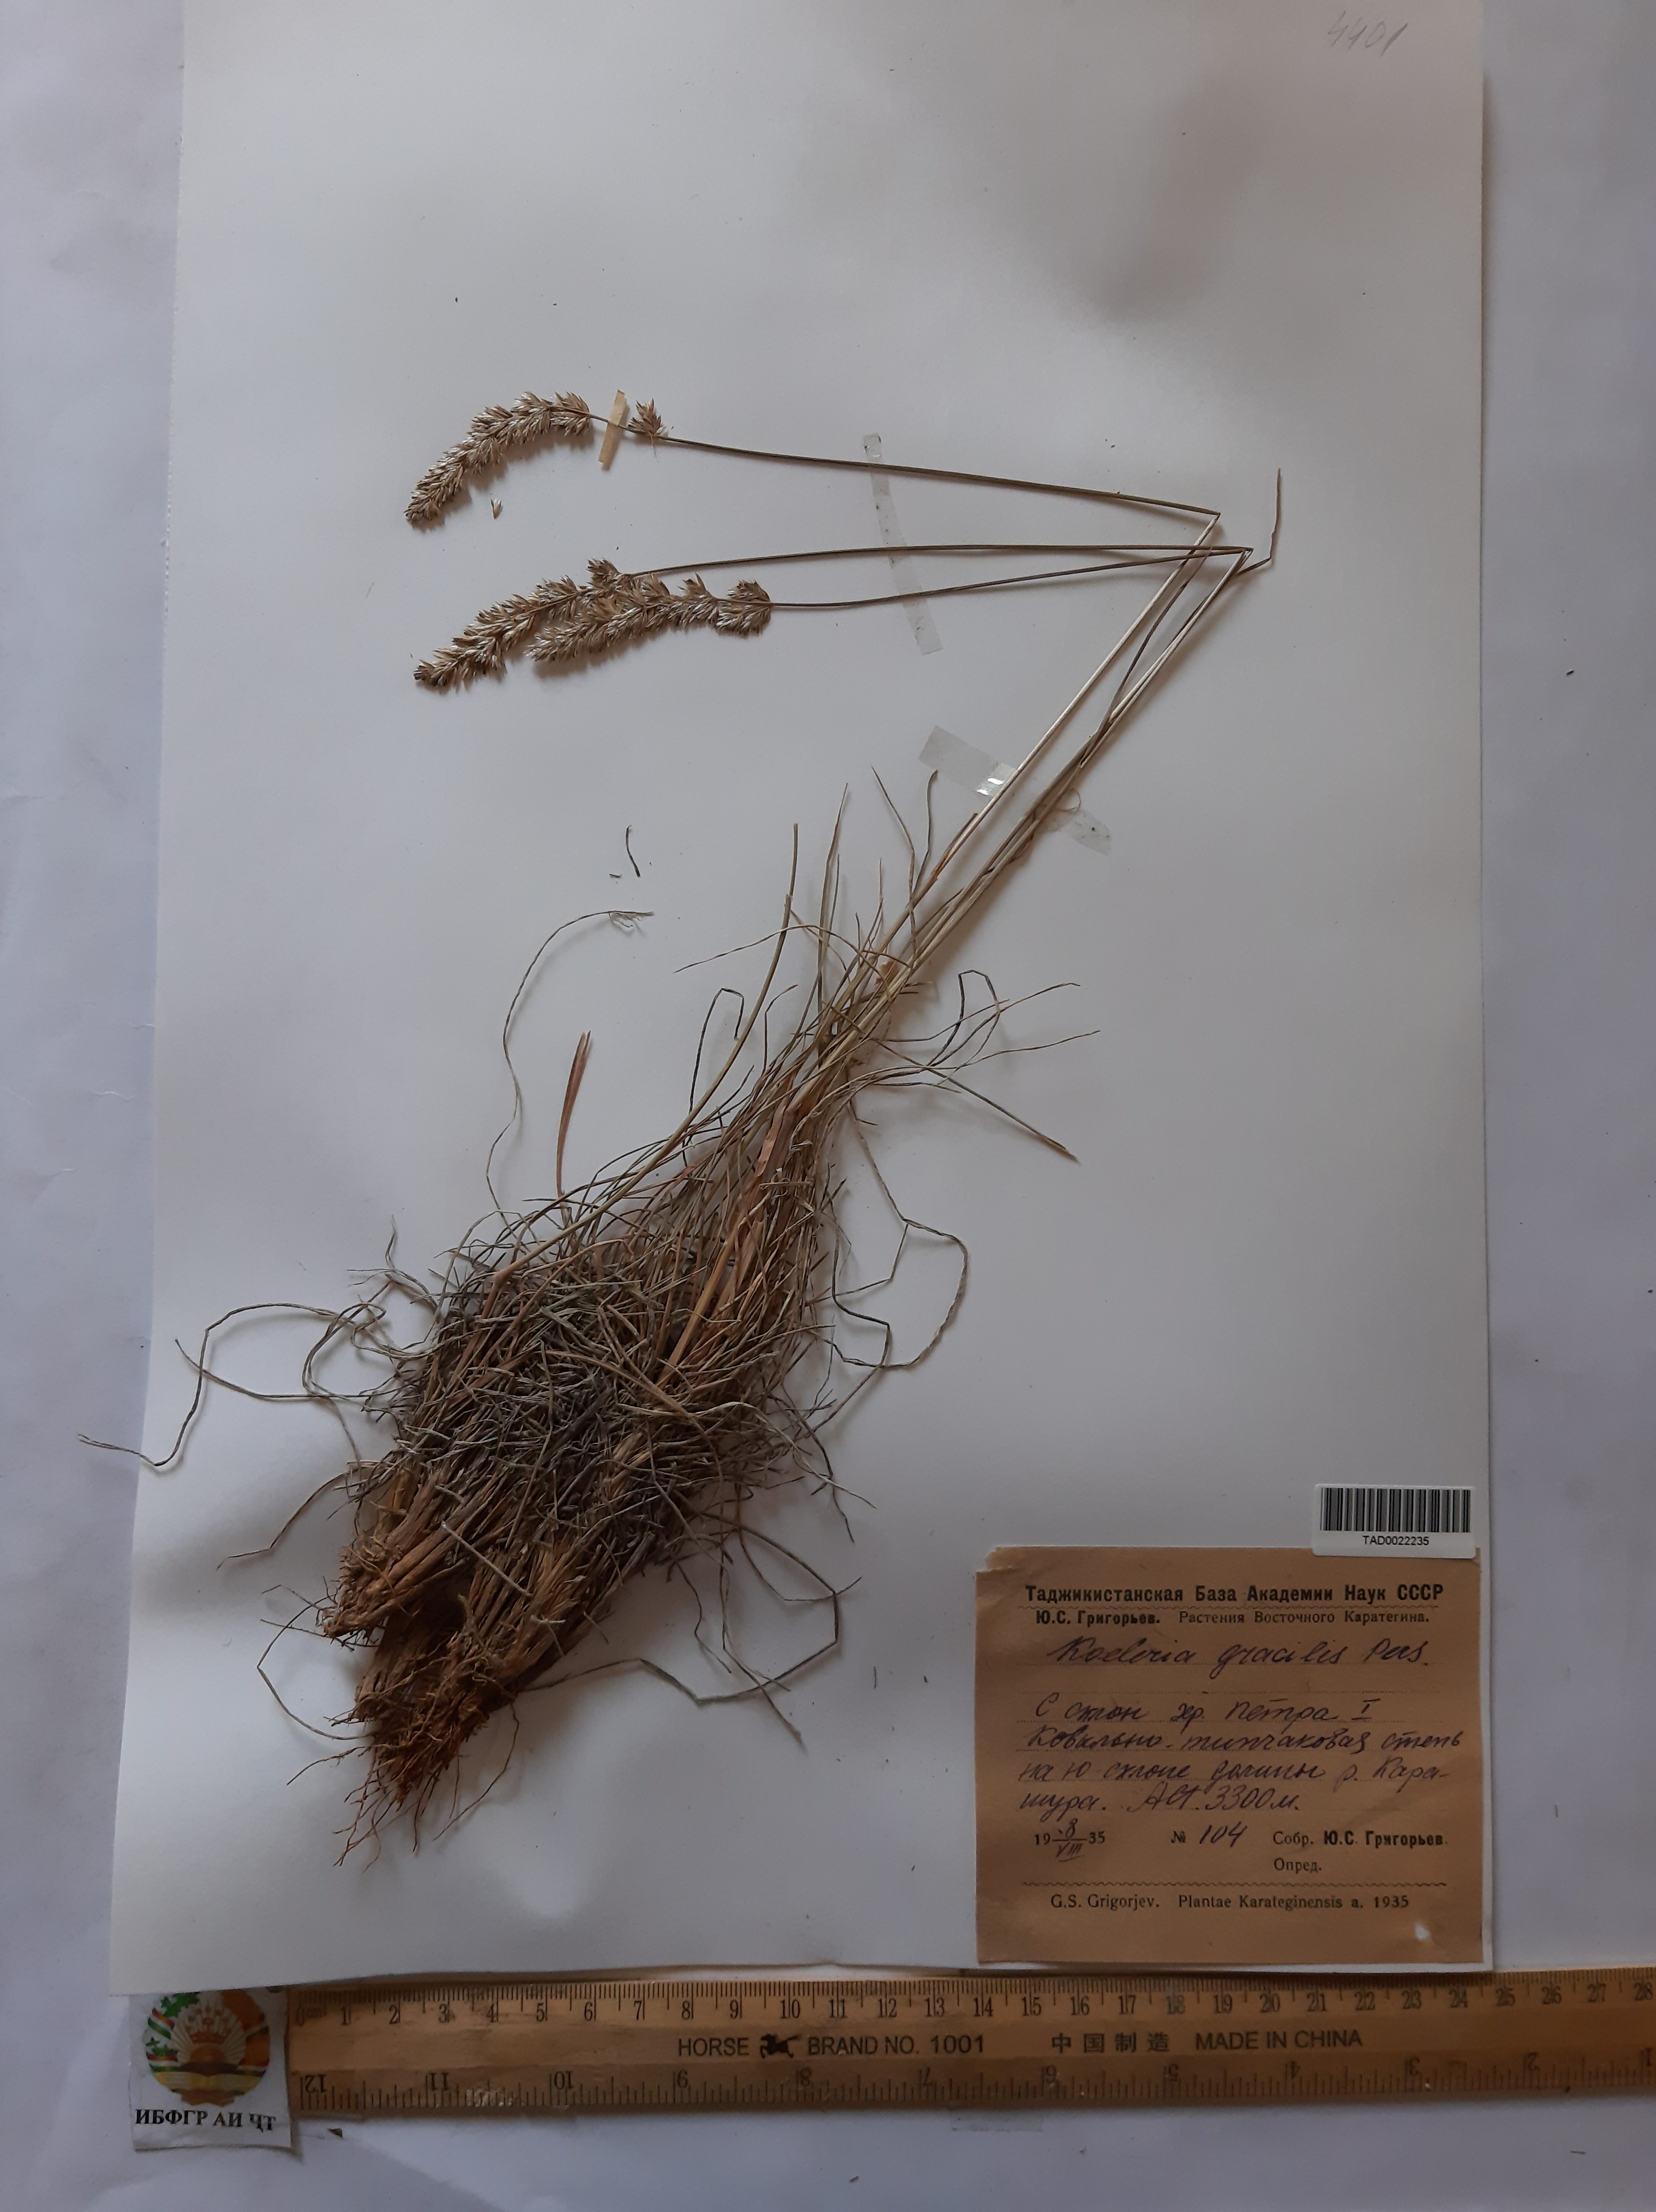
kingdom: Plantae
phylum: Tracheophyta
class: Liliopsida
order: Poales
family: Poaceae
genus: Koeleria
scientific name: Koeleria macrantha
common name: Crested hair-grass
